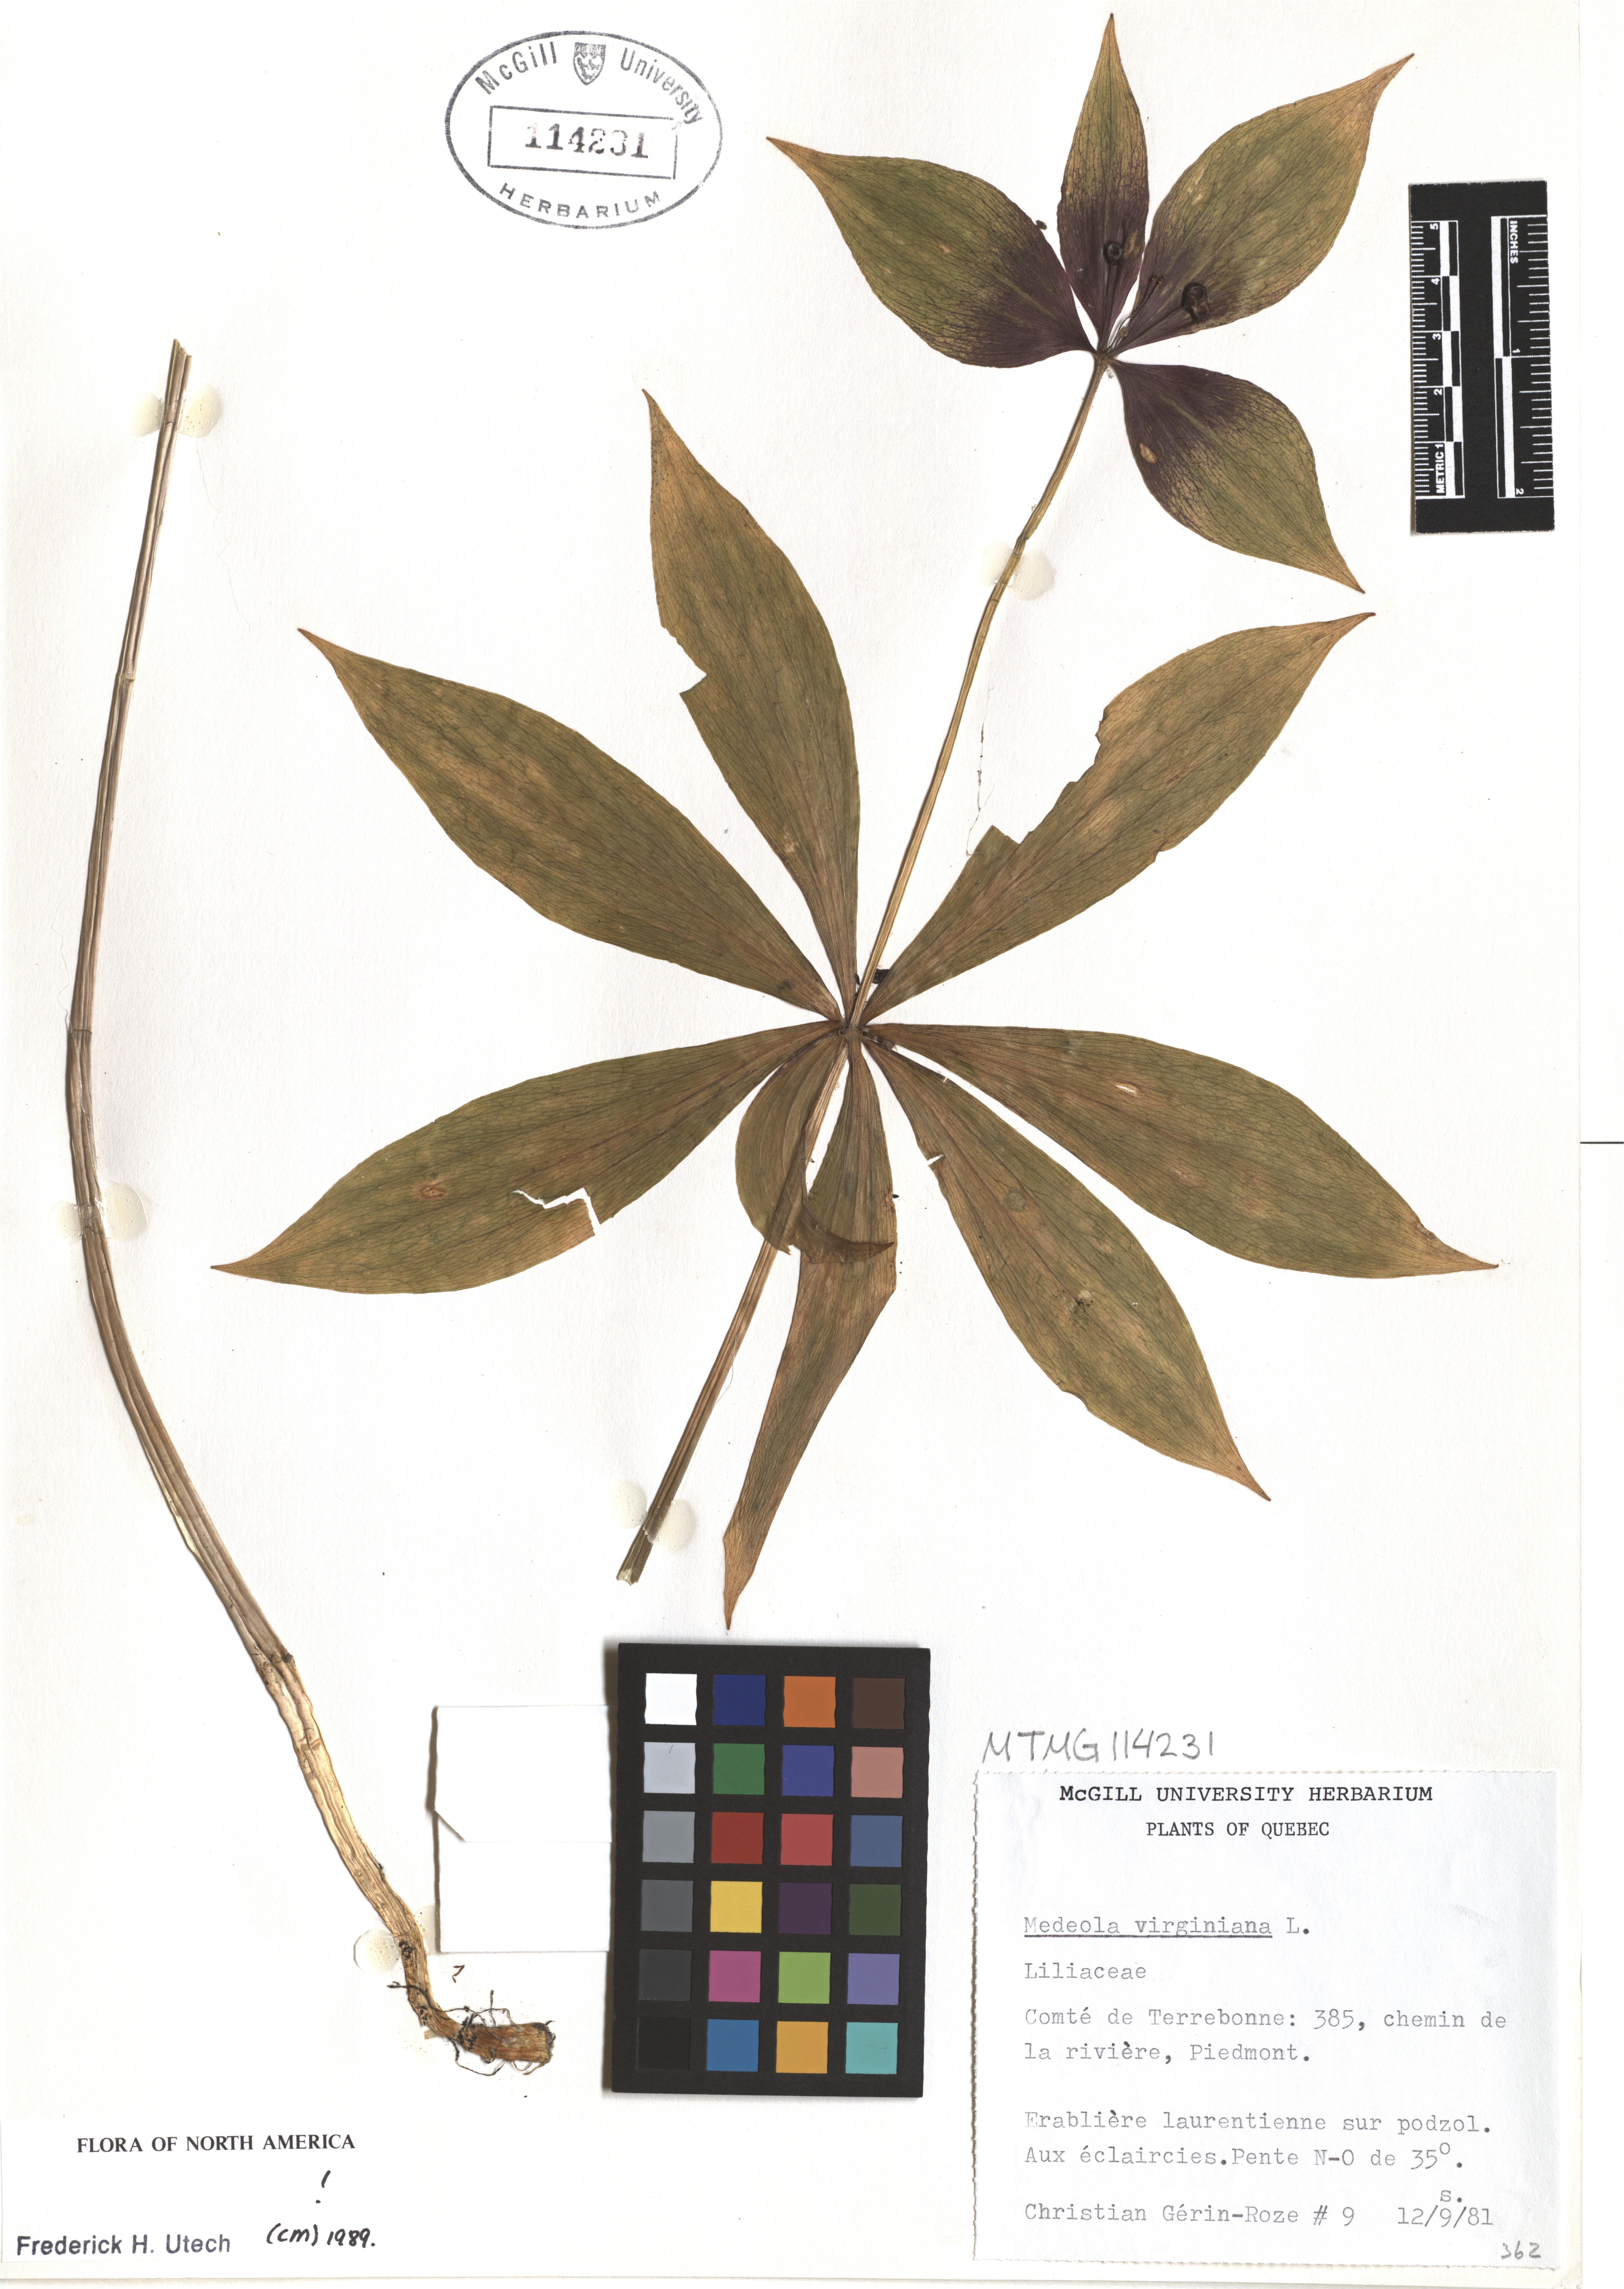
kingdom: Plantae
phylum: Tracheophyta
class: Liliopsida
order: Liliales
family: Liliaceae
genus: Medeola
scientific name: Medeola virginiana
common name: Indian cucumber-root
